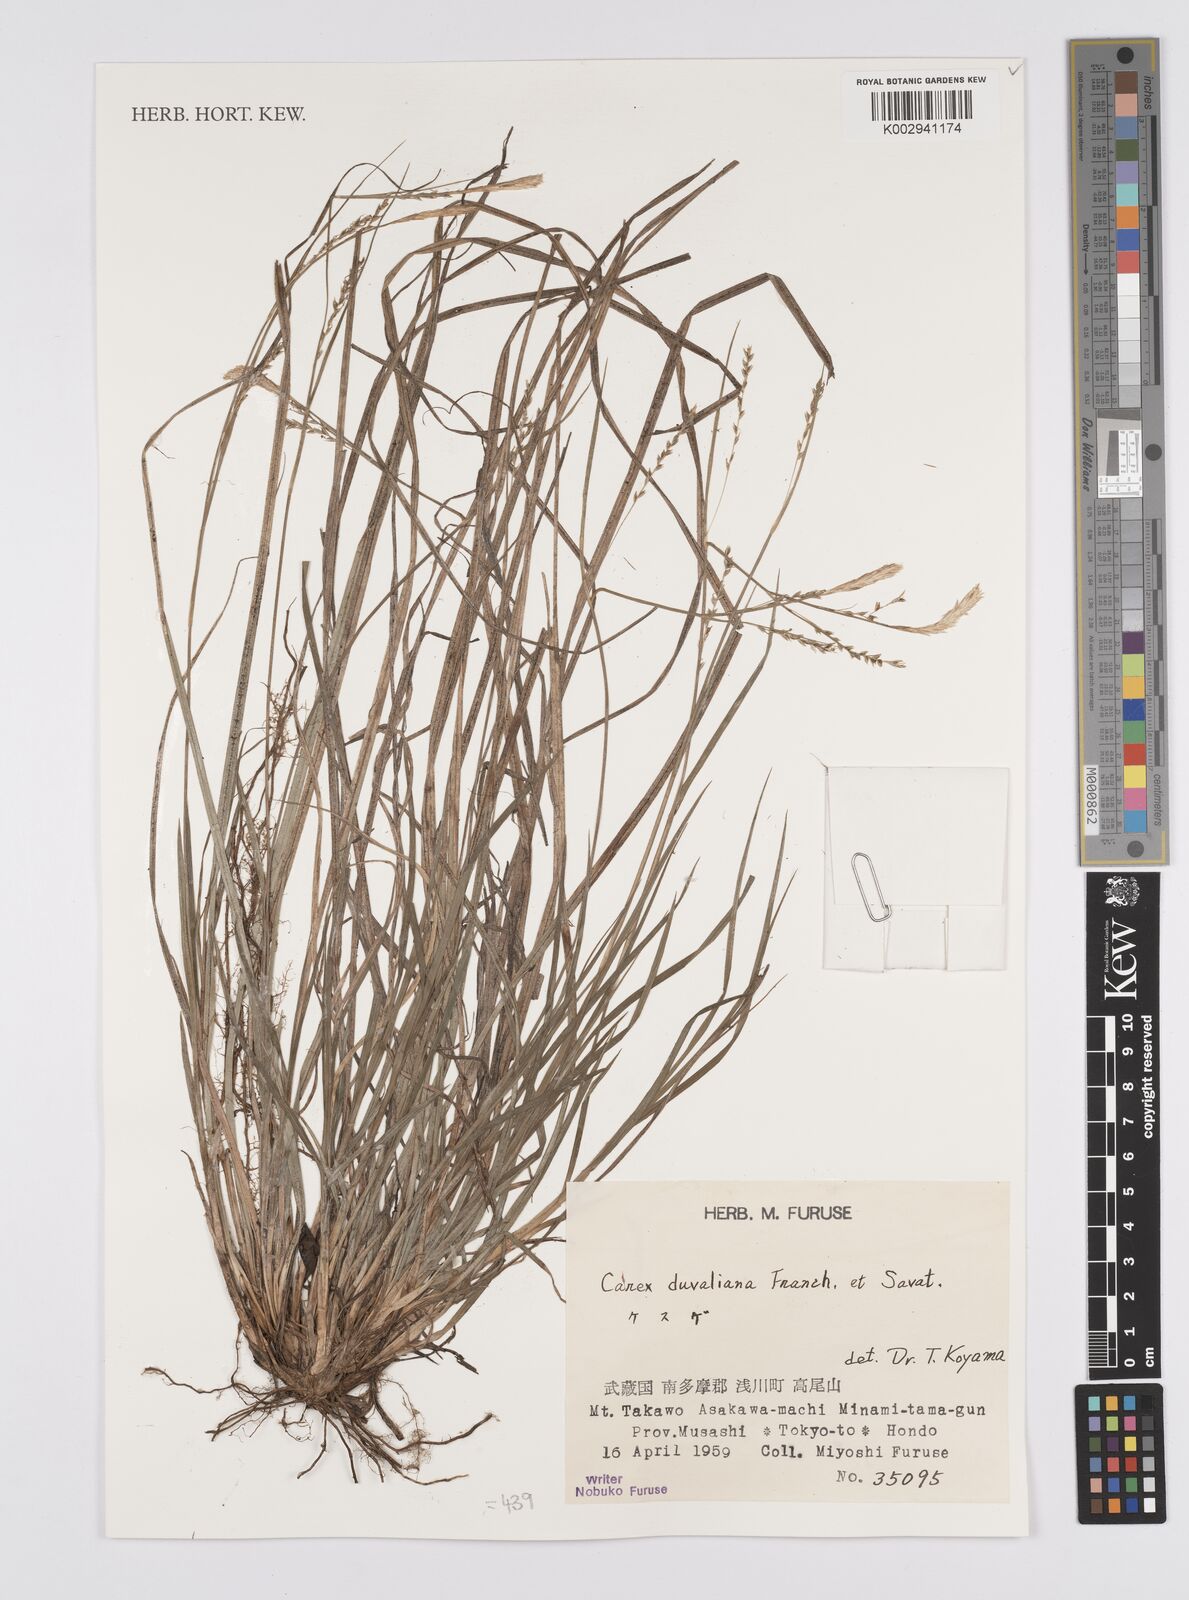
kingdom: Plantae
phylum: Tracheophyta
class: Liliopsida
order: Poales
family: Cyperaceae
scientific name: Cyperaceae
